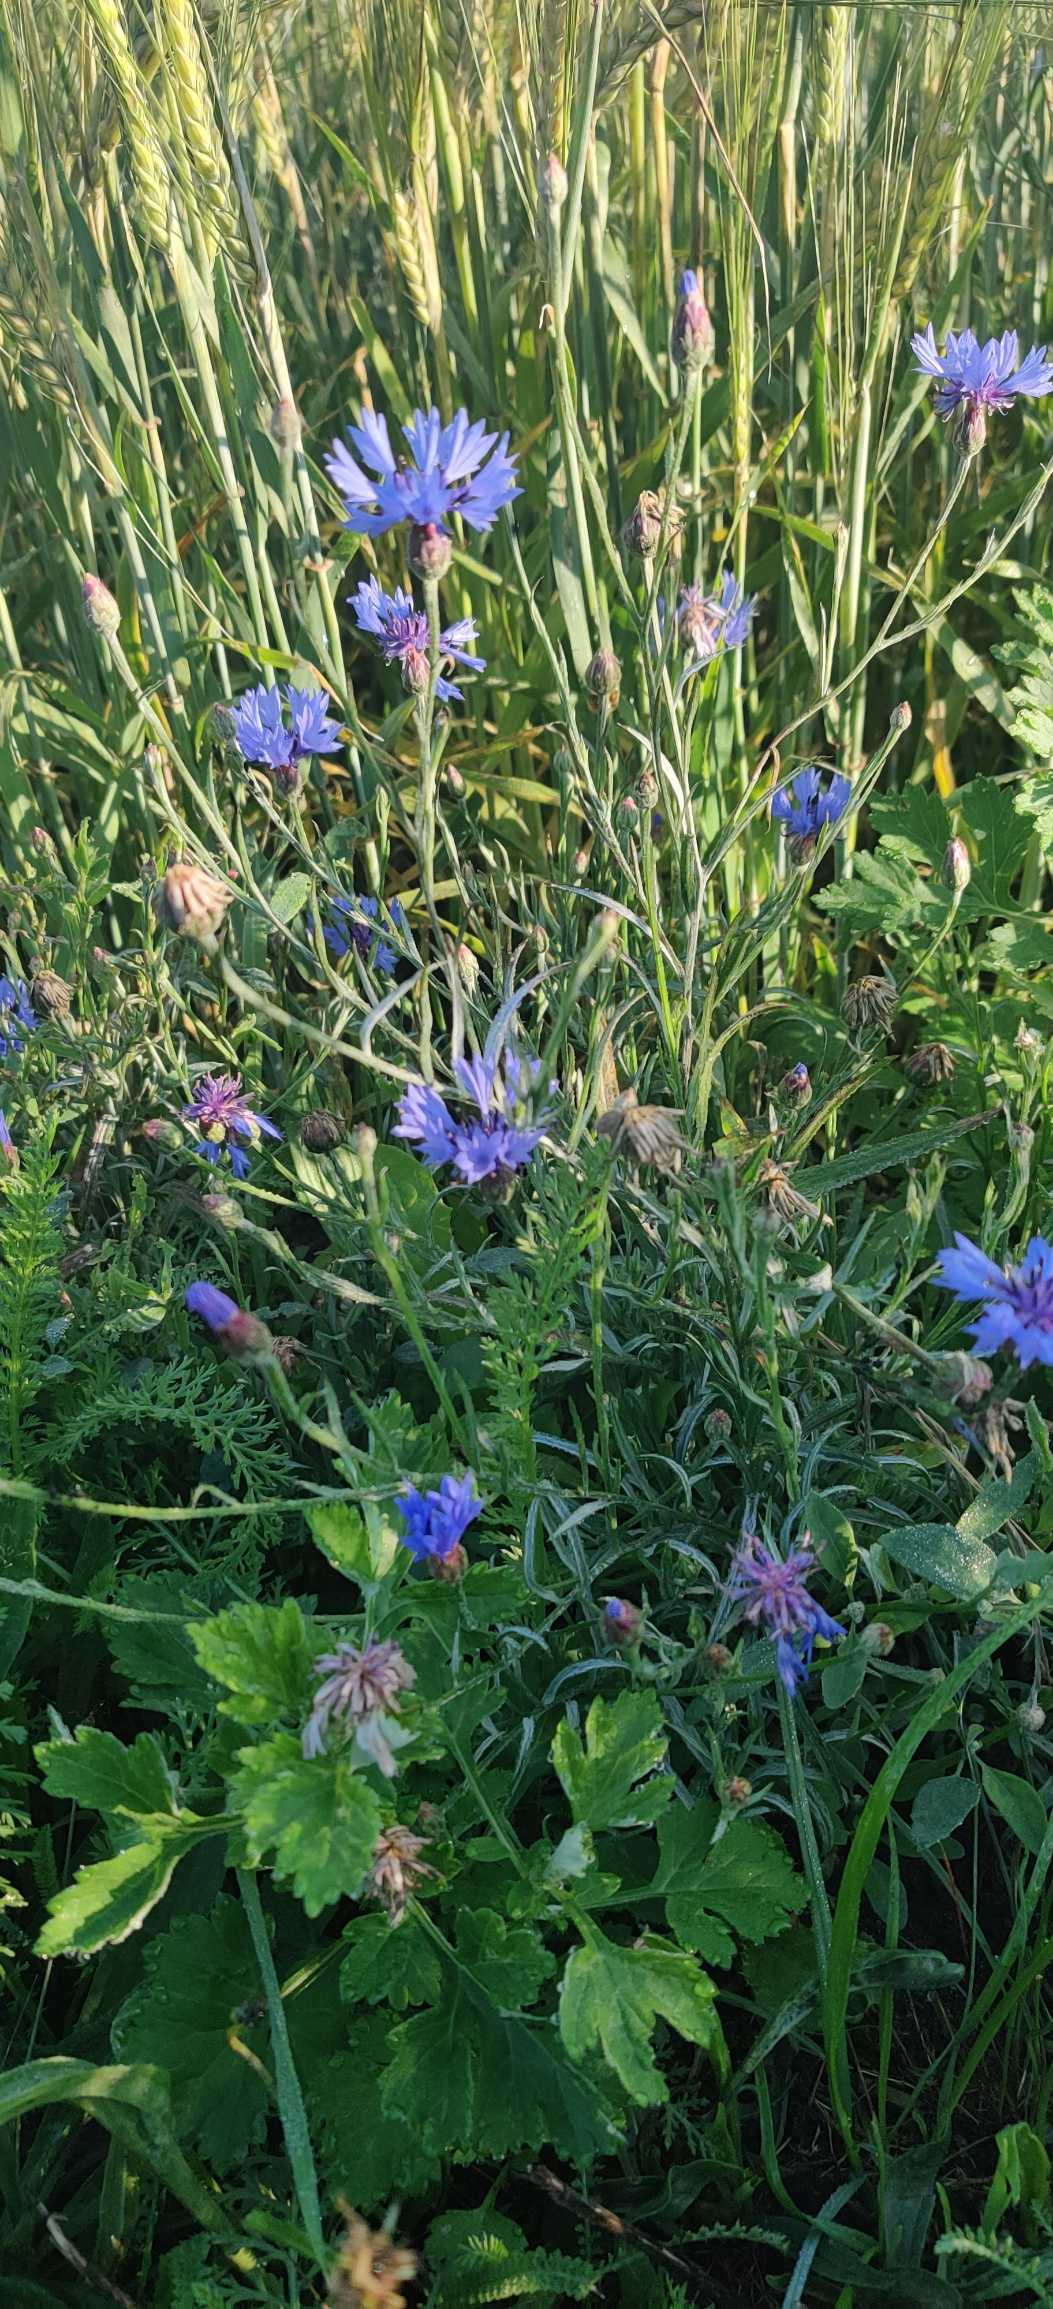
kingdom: Plantae
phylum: Tracheophyta
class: Magnoliopsida
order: Asterales
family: Asteraceae
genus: Centaurea
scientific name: Centaurea cyanus
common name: Kornblomst
